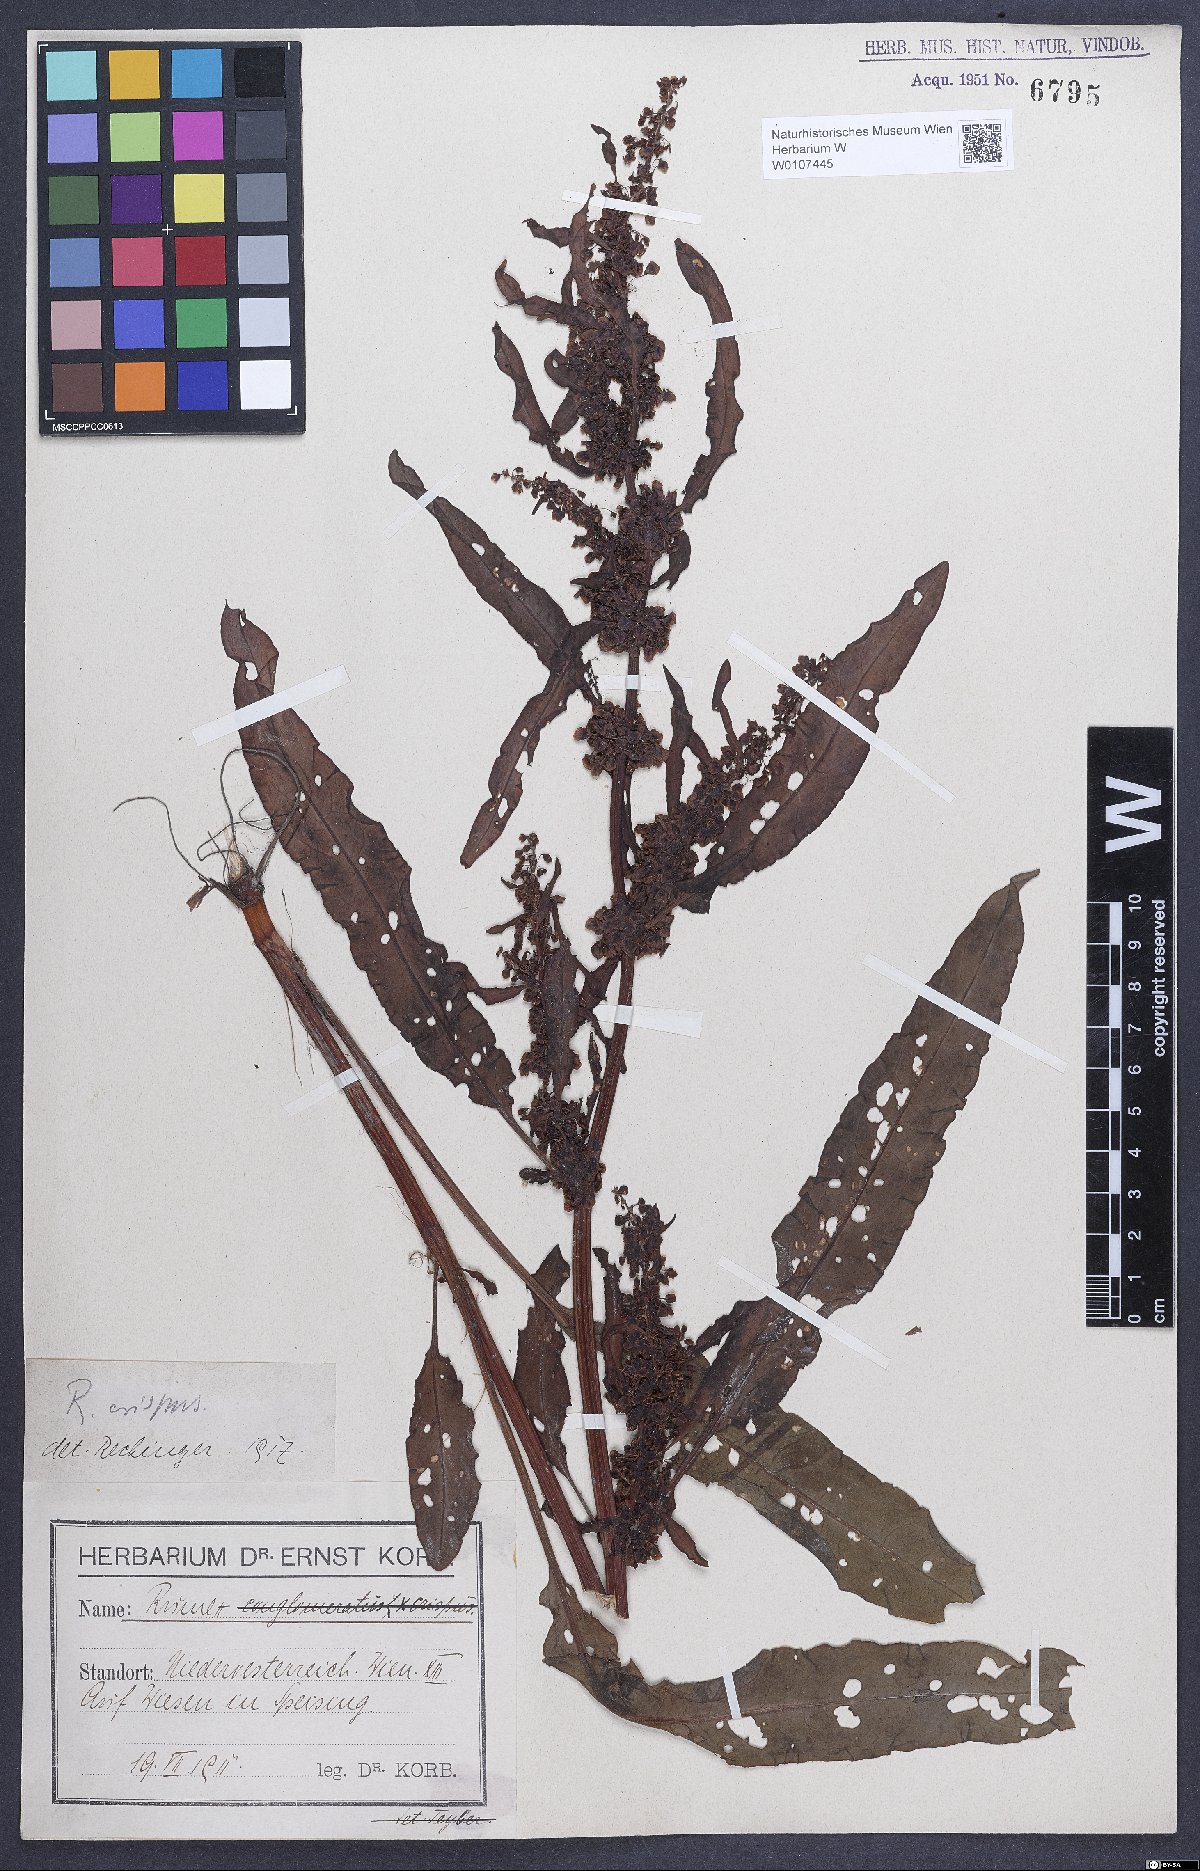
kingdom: Plantae
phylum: Tracheophyta
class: Magnoliopsida
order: Caryophyllales
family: Polygonaceae
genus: Rumex
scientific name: Rumex crispus
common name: Curled dock
